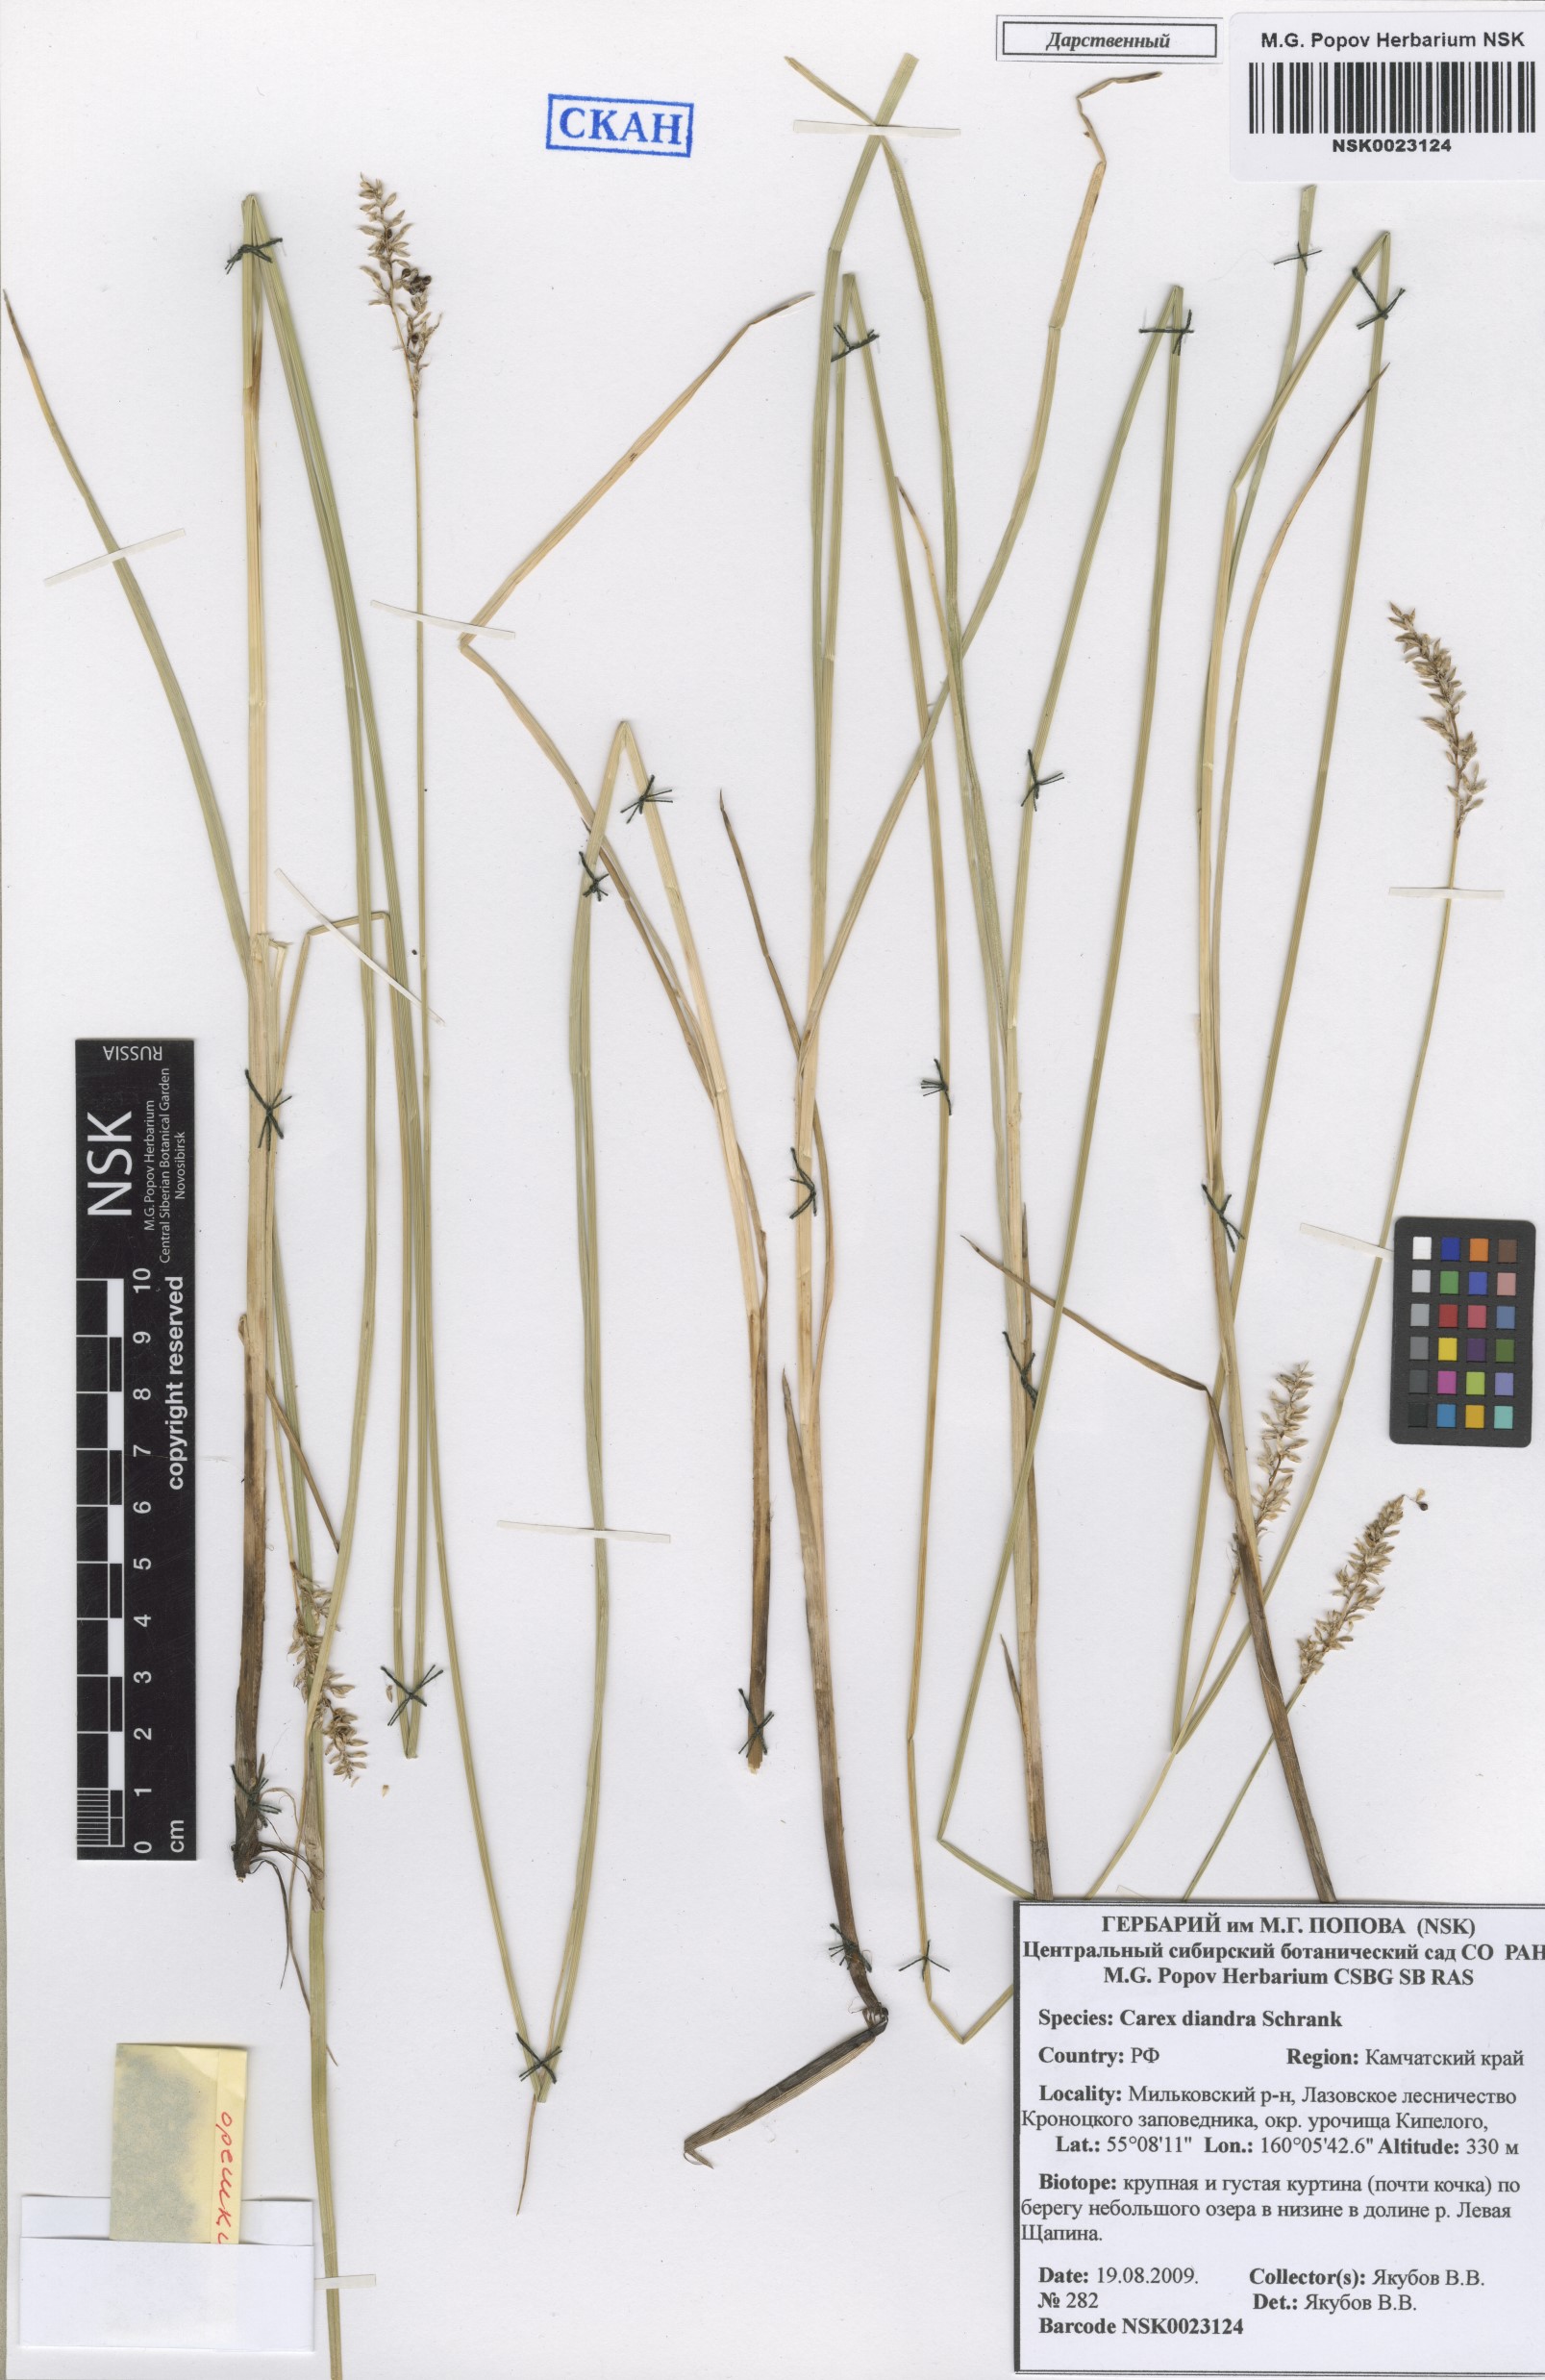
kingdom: Plantae
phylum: Tracheophyta
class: Liliopsida
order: Poales
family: Cyperaceae
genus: Carex
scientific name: Carex diandra
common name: Lesser tussock-sedge
